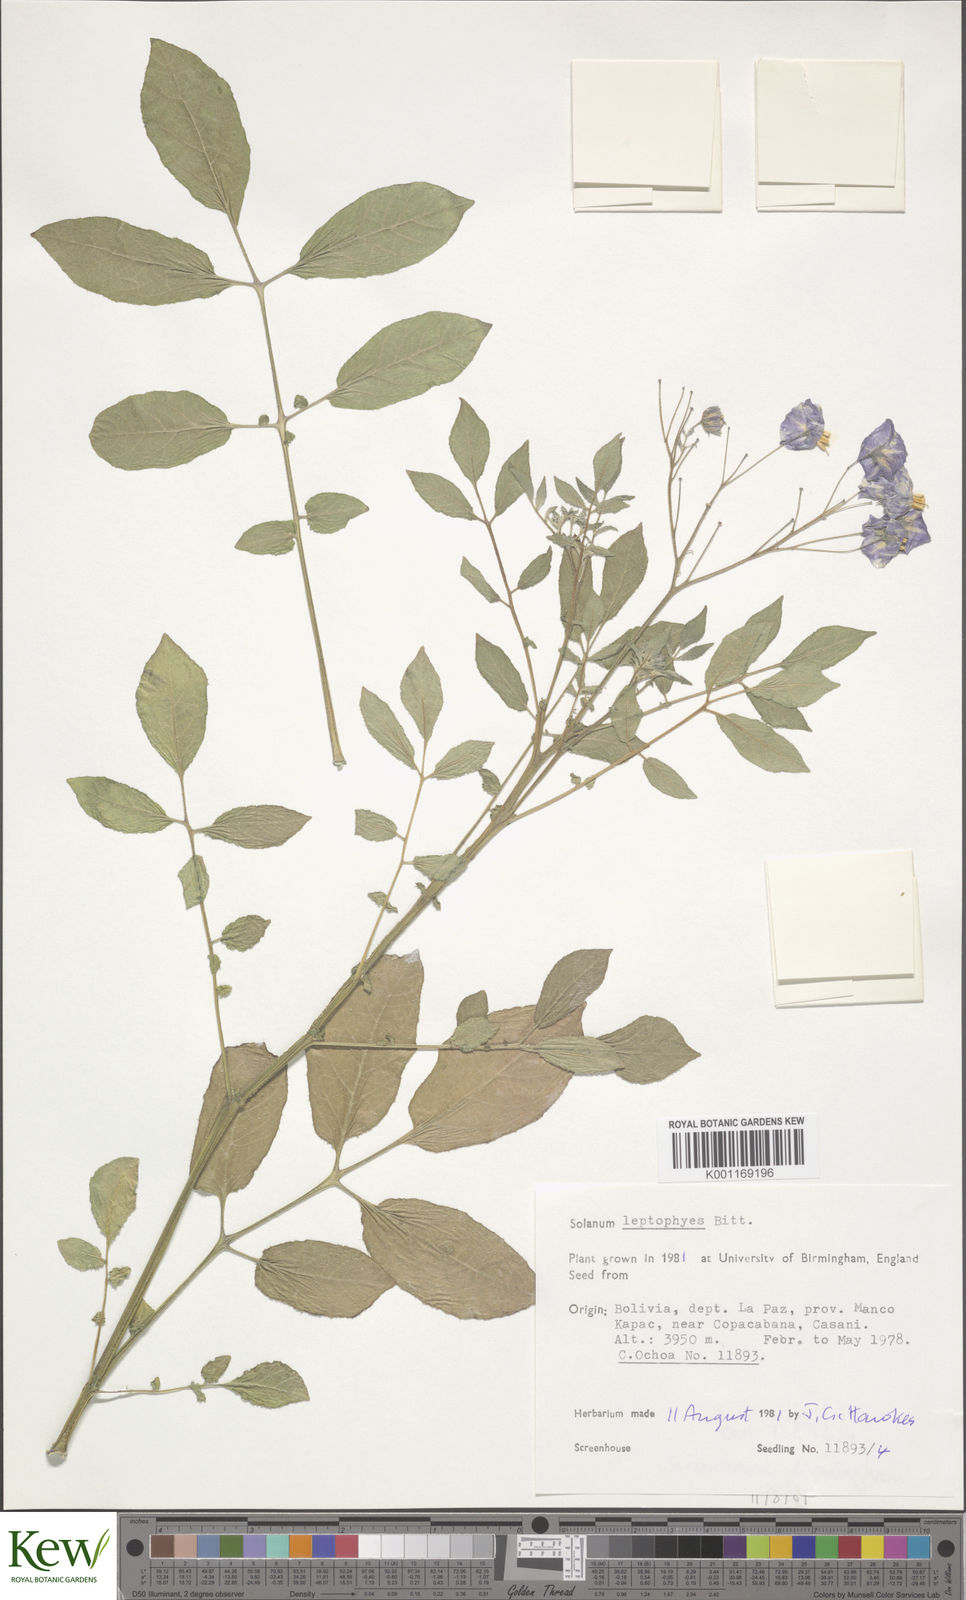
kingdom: Plantae
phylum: Tracheophyta
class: Magnoliopsida
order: Solanales
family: Solanaceae
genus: Solanum
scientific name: Solanum brevicaule
